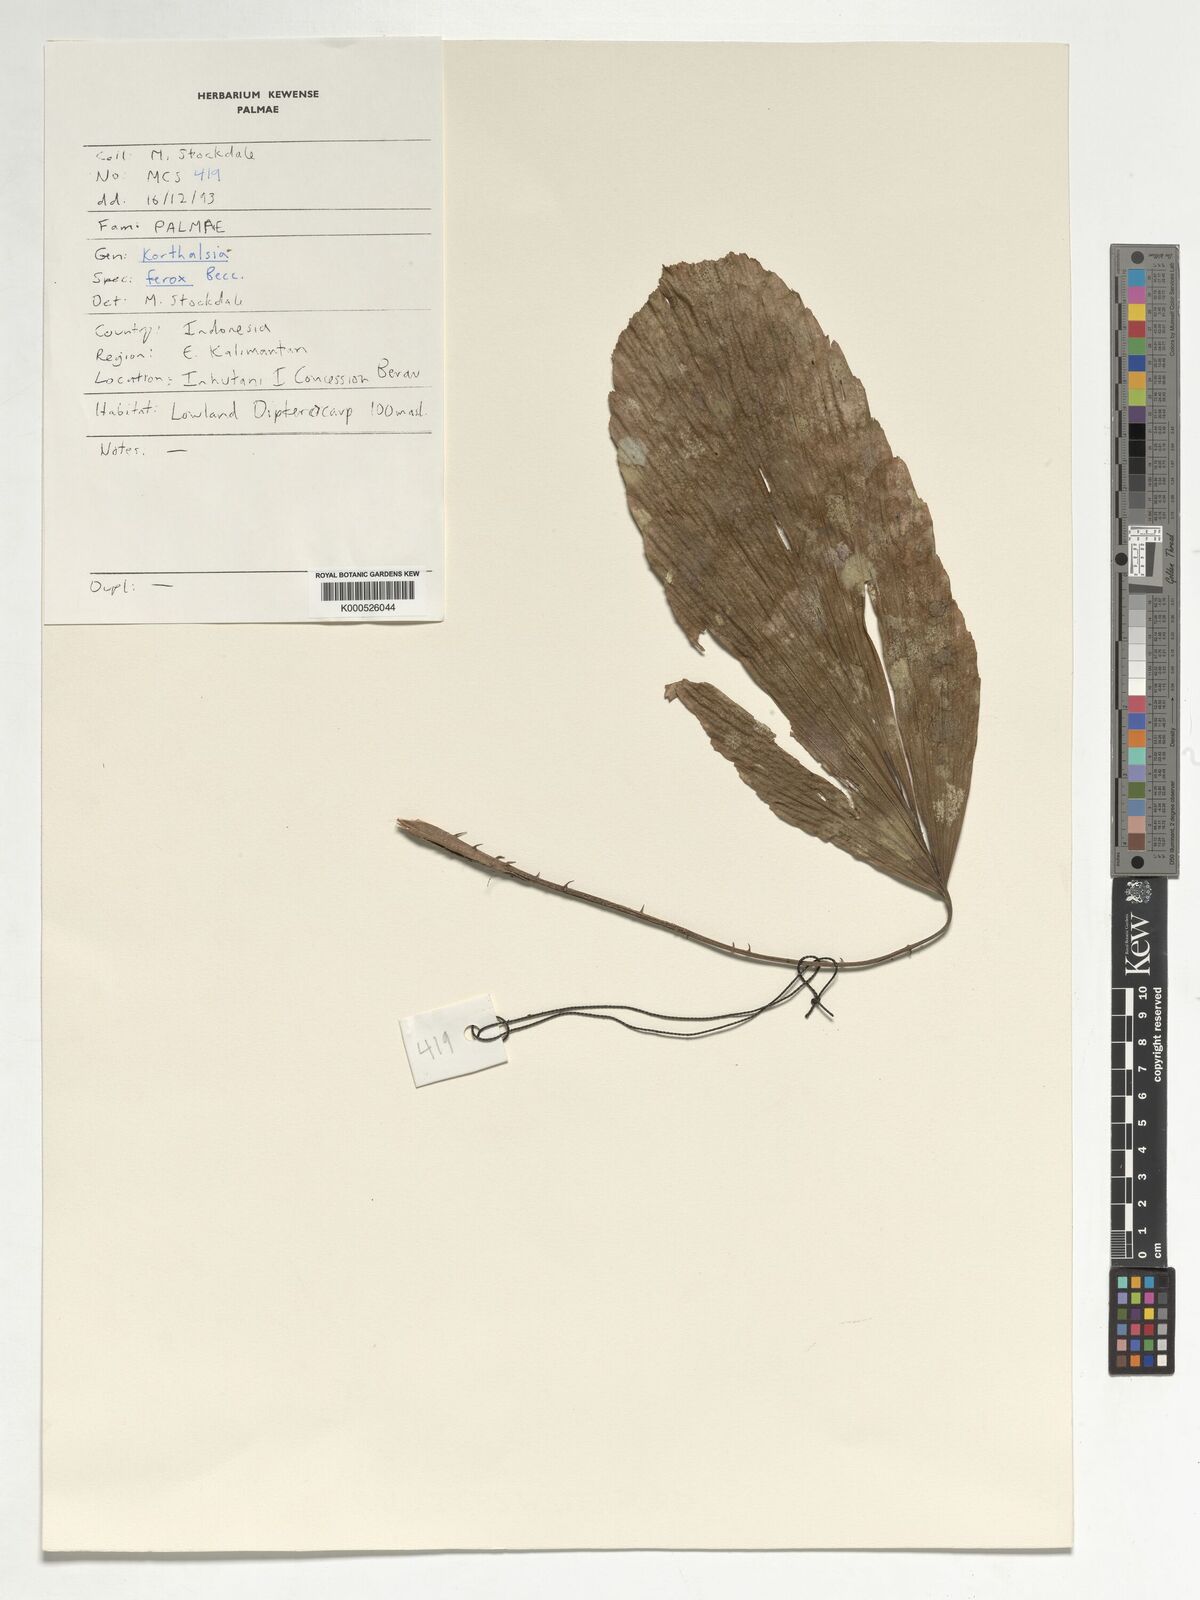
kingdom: Plantae
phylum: Tracheophyta
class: Liliopsida
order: Arecales
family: Arecaceae
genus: Korthalsia
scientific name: Korthalsia ferox
